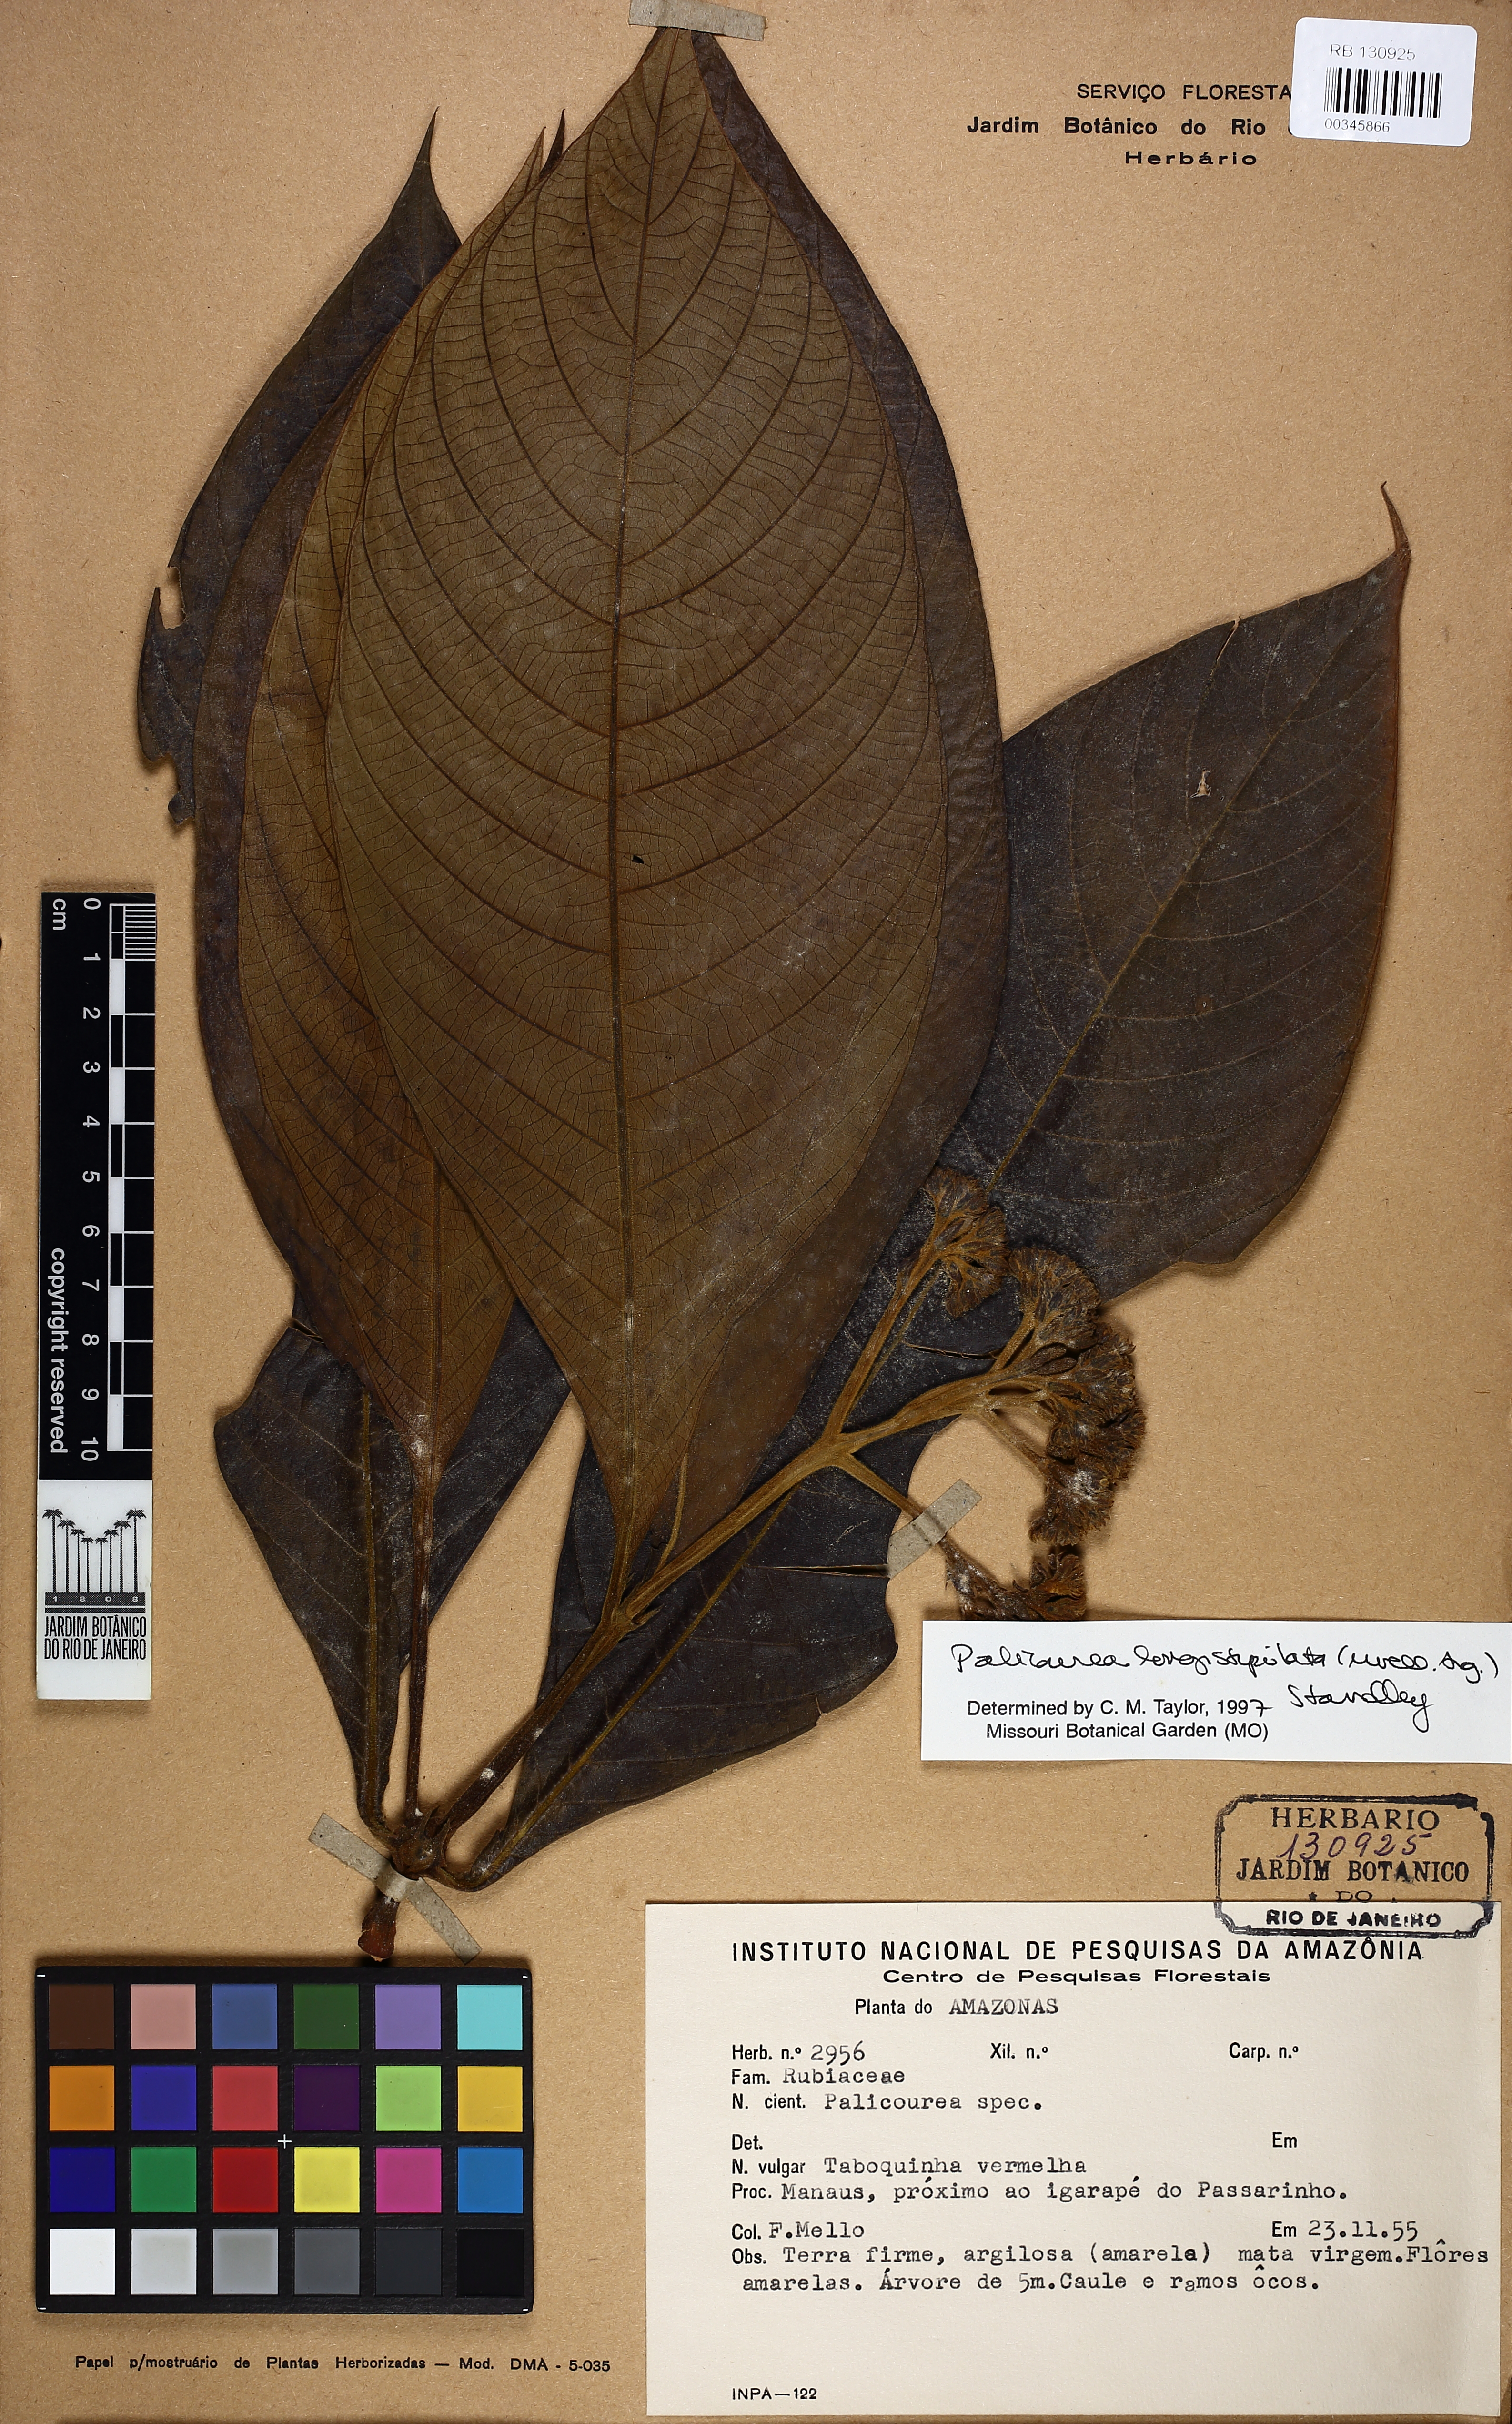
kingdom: Plantae
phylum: Tracheophyta
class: Magnoliopsida
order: Gentianales
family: Rubiaceae
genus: Palicourea
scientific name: Palicourea longistipulata
